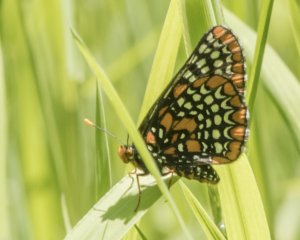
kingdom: Animalia
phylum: Arthropoda
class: Insecta
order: Lepidoptera
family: Nymphalidae
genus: Euphydryas
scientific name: Euphydryas phaeton
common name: Baltimore Checkerspot
